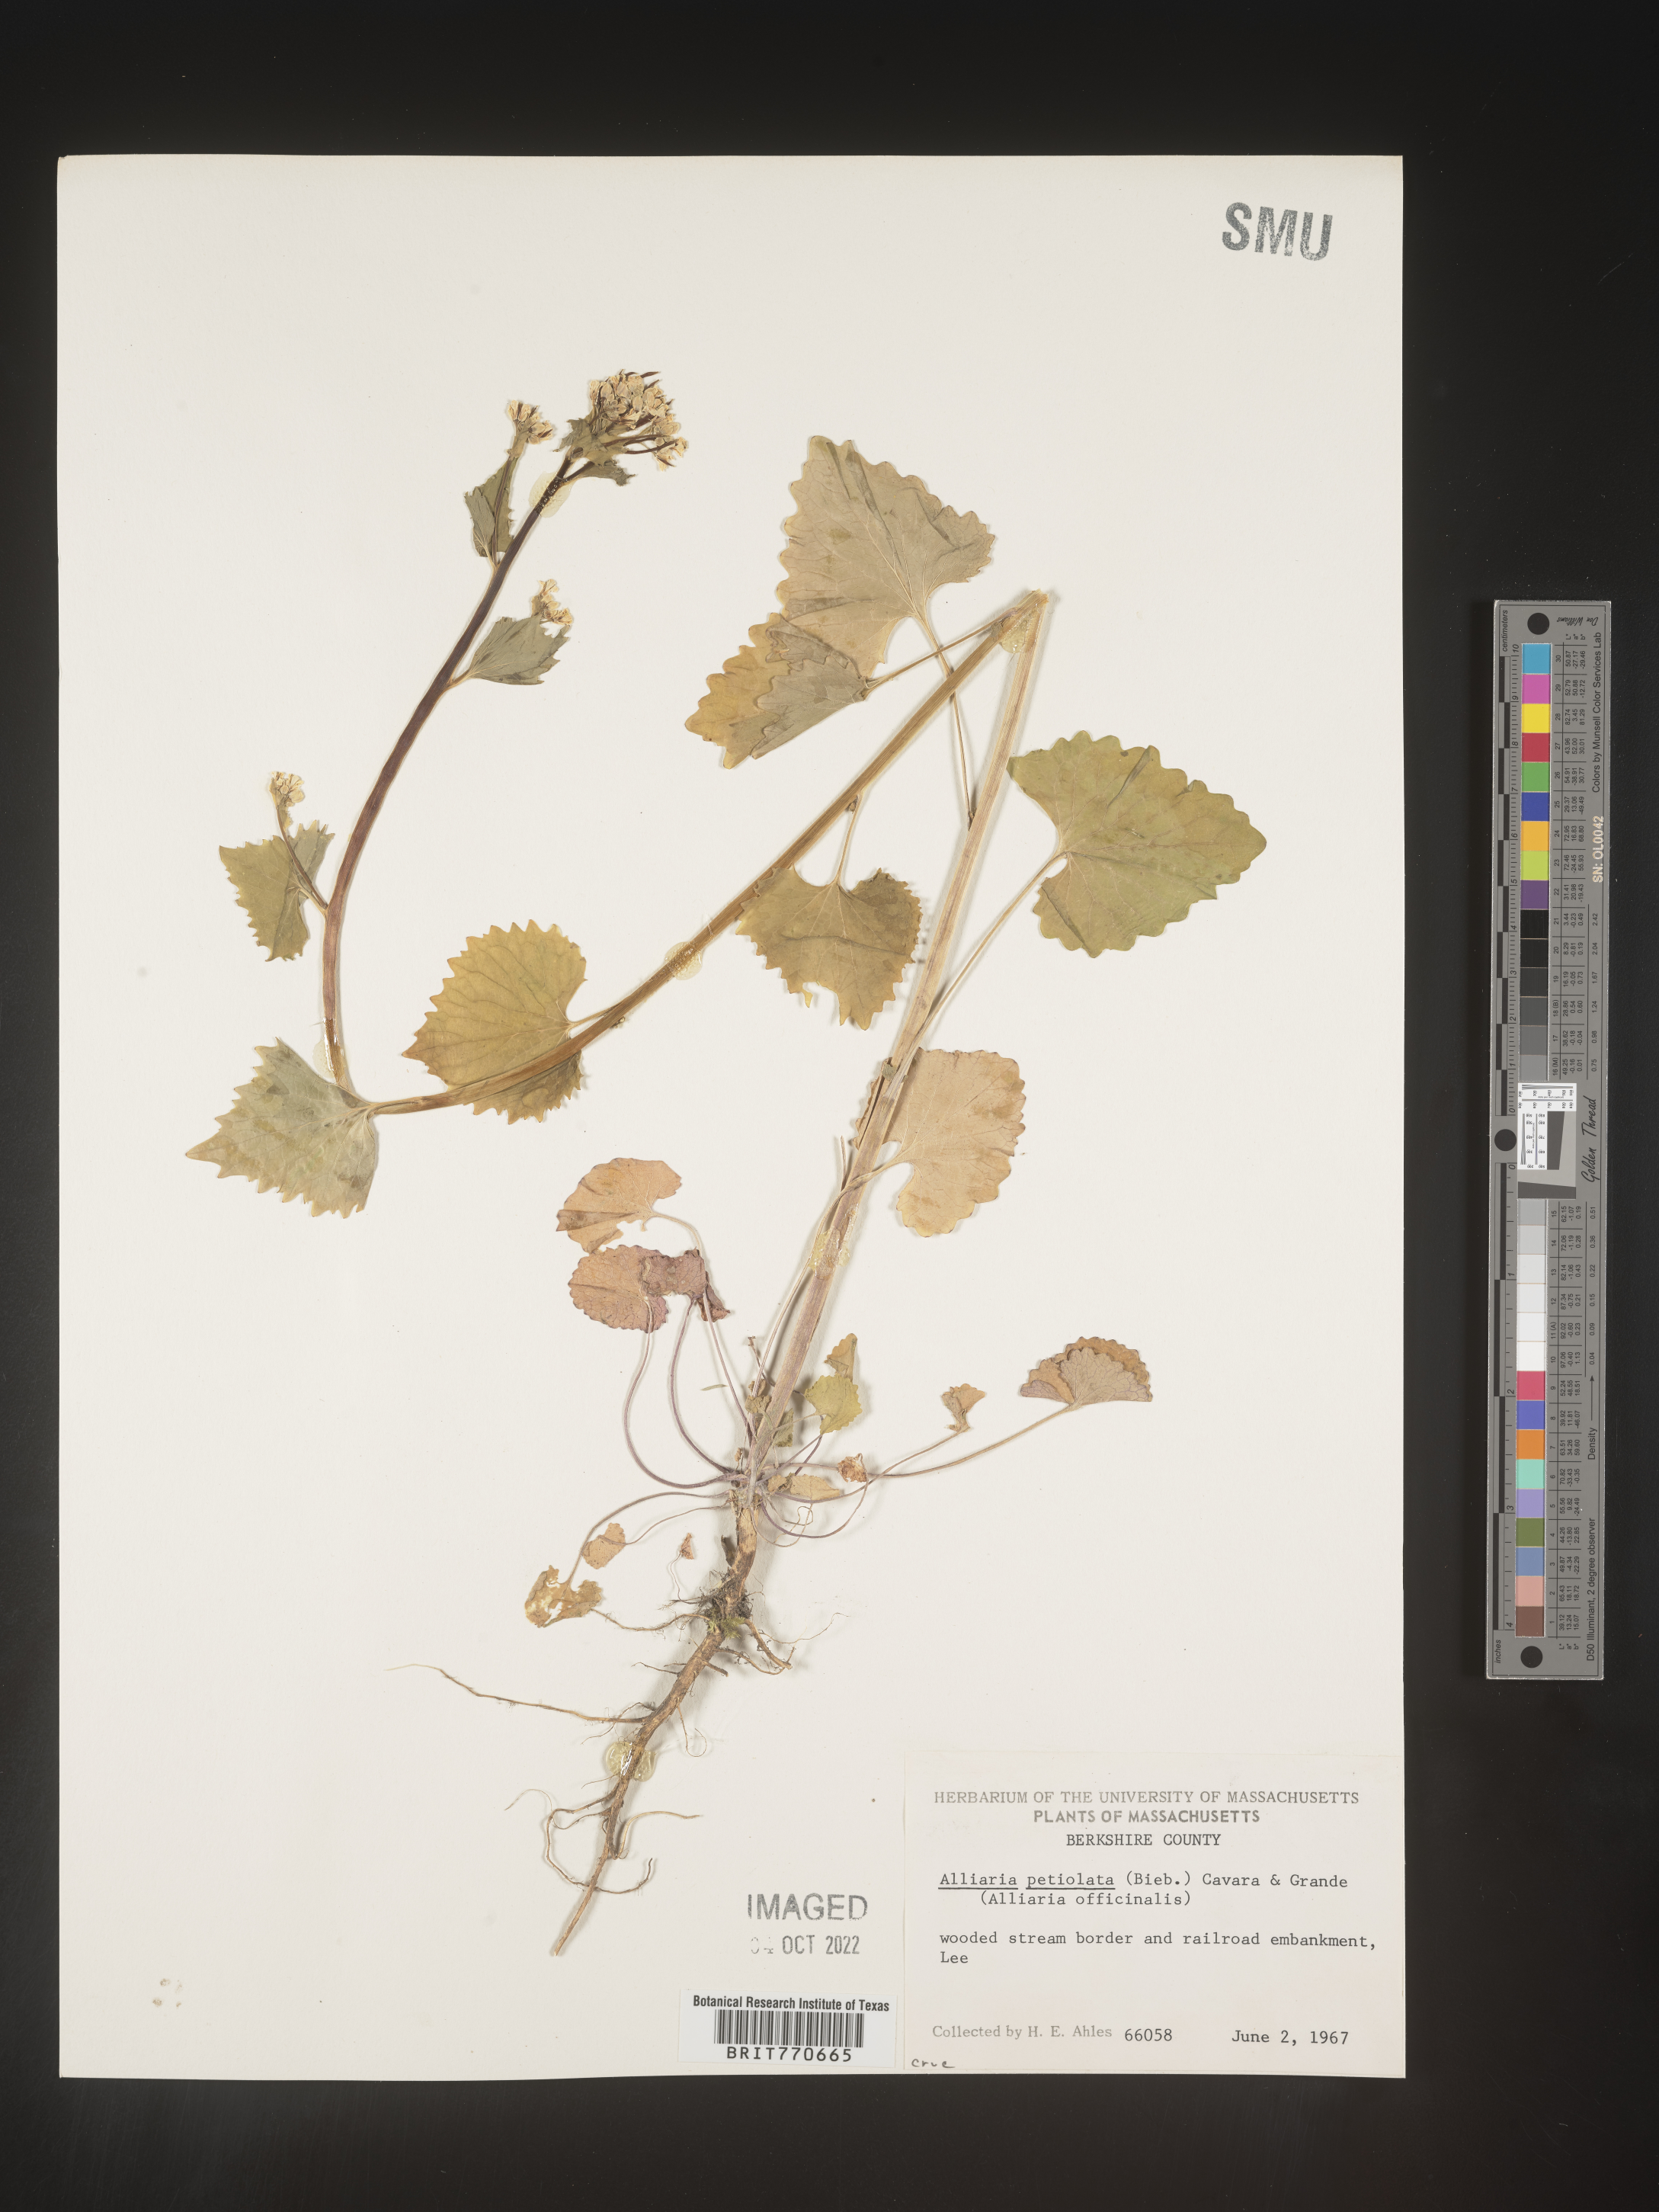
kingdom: Plantae
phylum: Tracheophyta
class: Magnoliopsida
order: Brassicales
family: Brassicaceae
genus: Alliaria
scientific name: Alliaria
